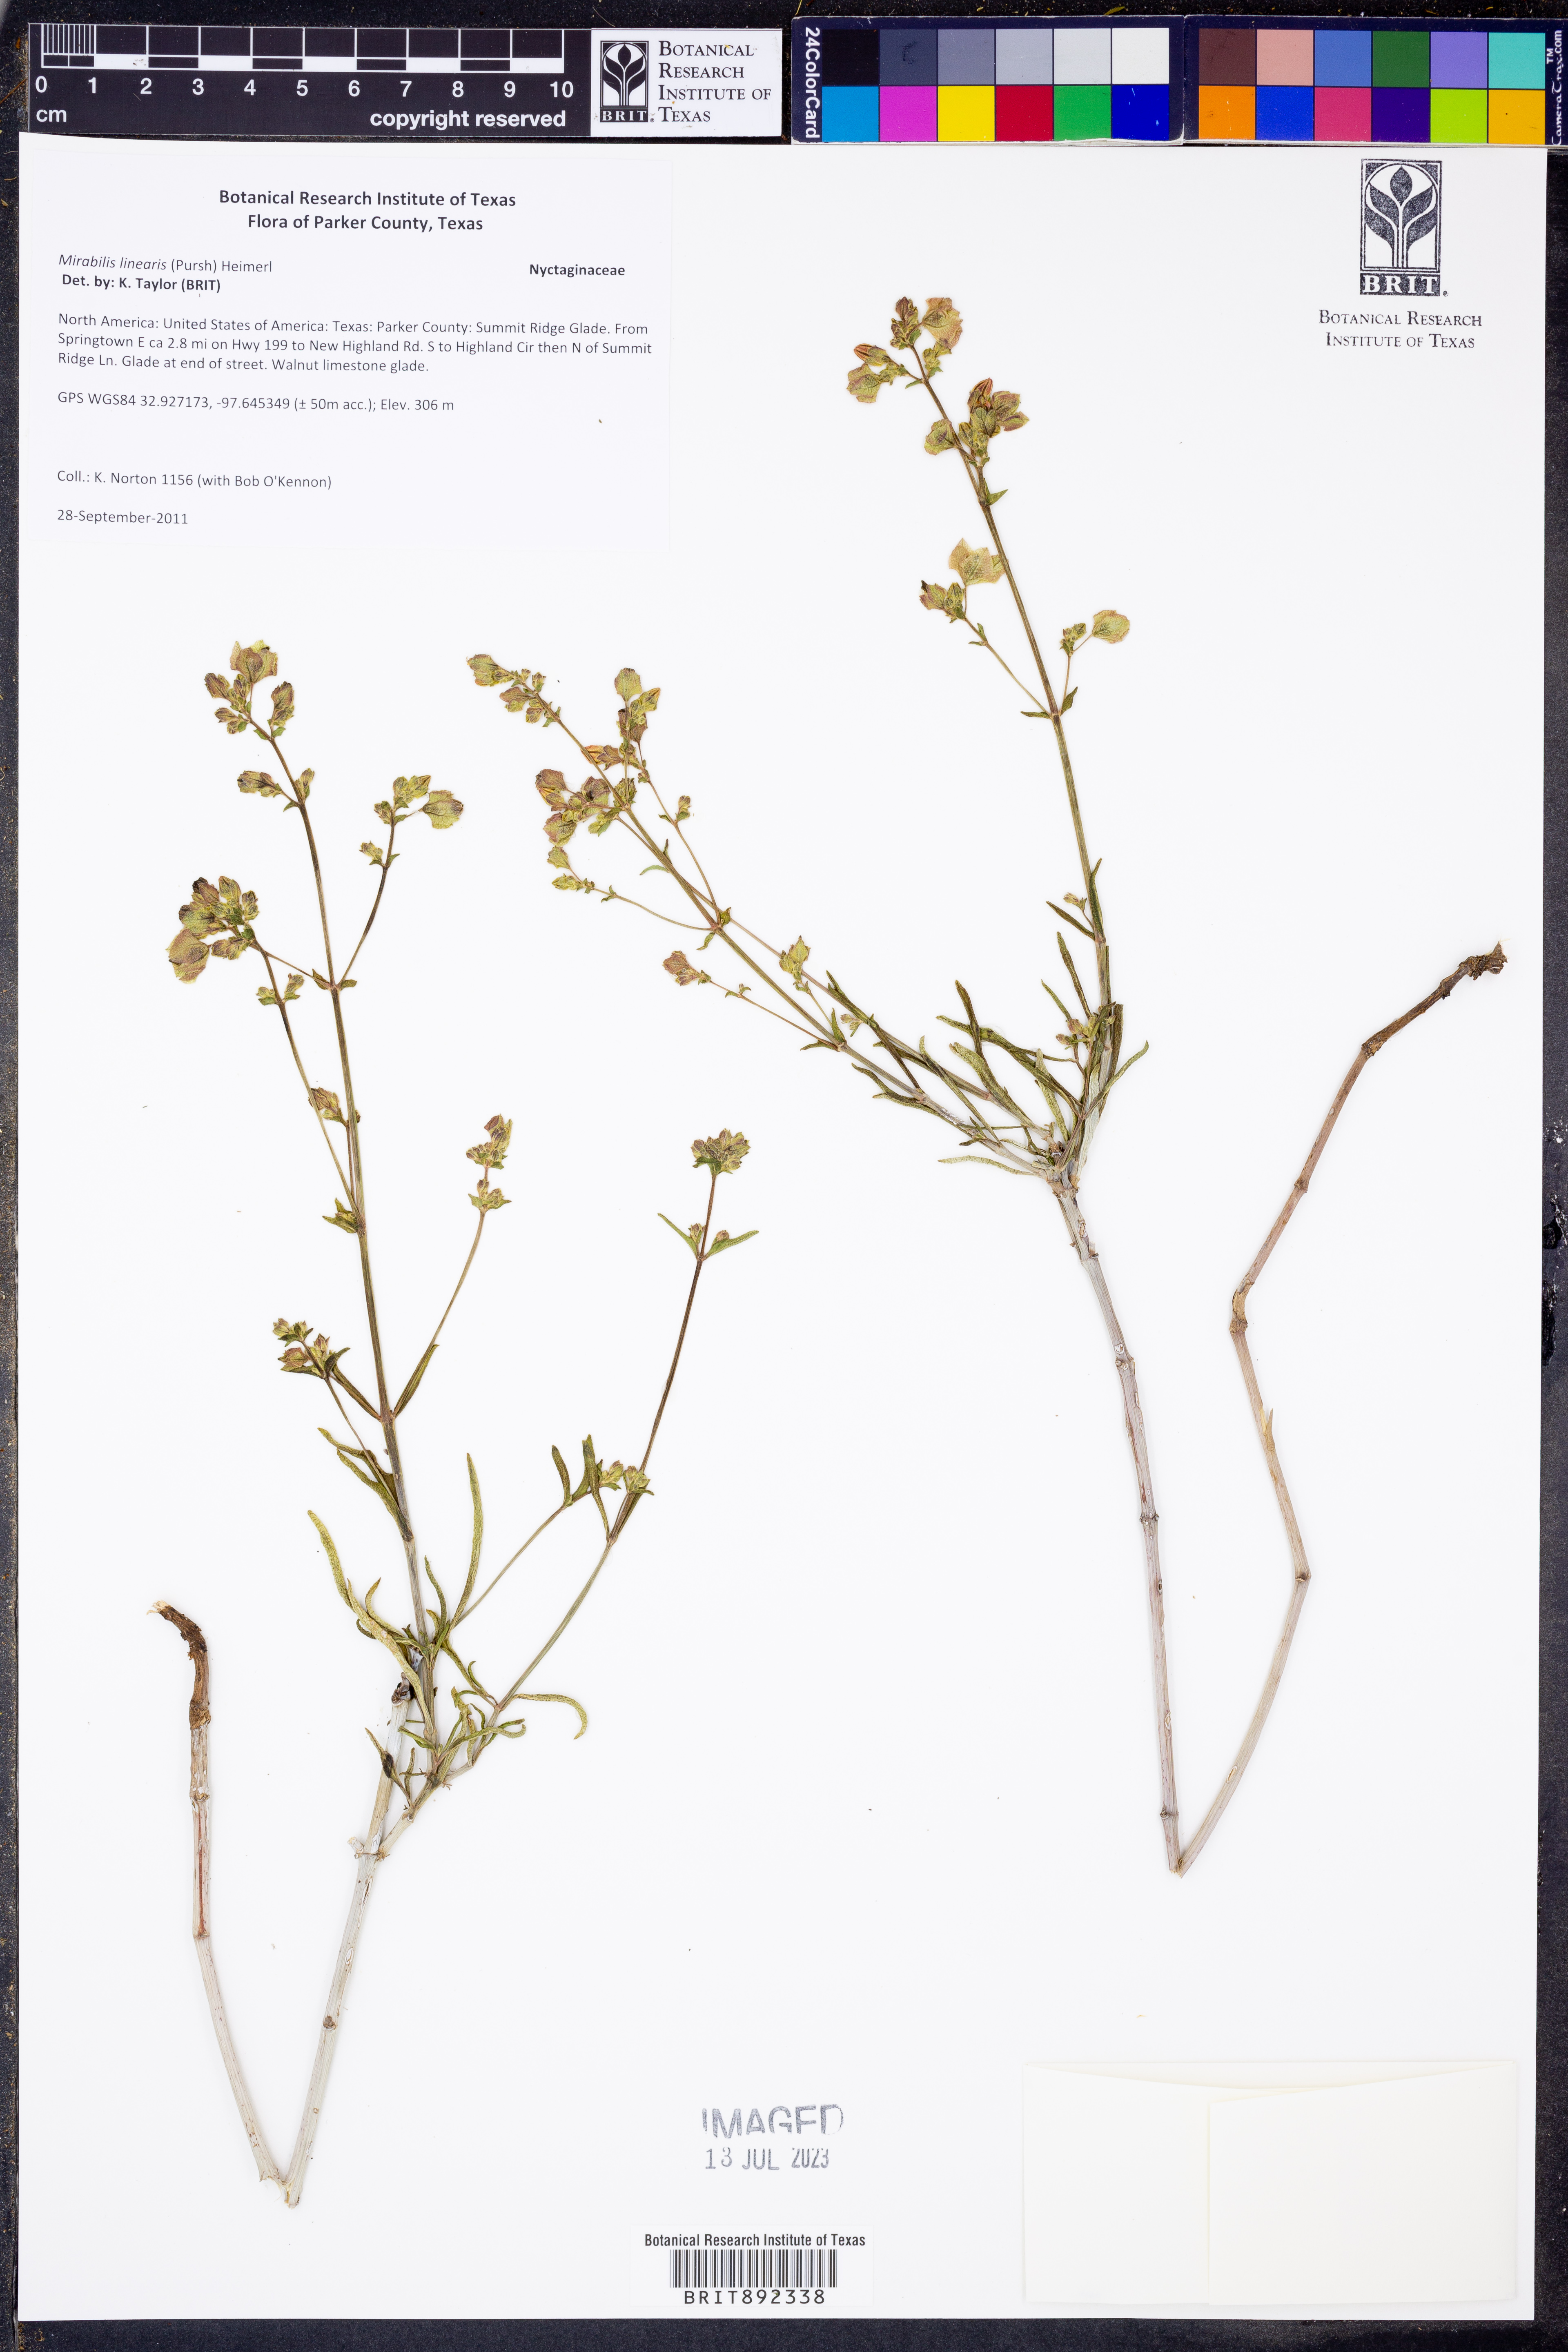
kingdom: Plantae
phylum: Tracheophyta
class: Magnoliopsida
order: Caryophyllales
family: Nyctaginaceae
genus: Mirabilis
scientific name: Mirabilis linearis
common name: Linear-leaved four-o'clock
